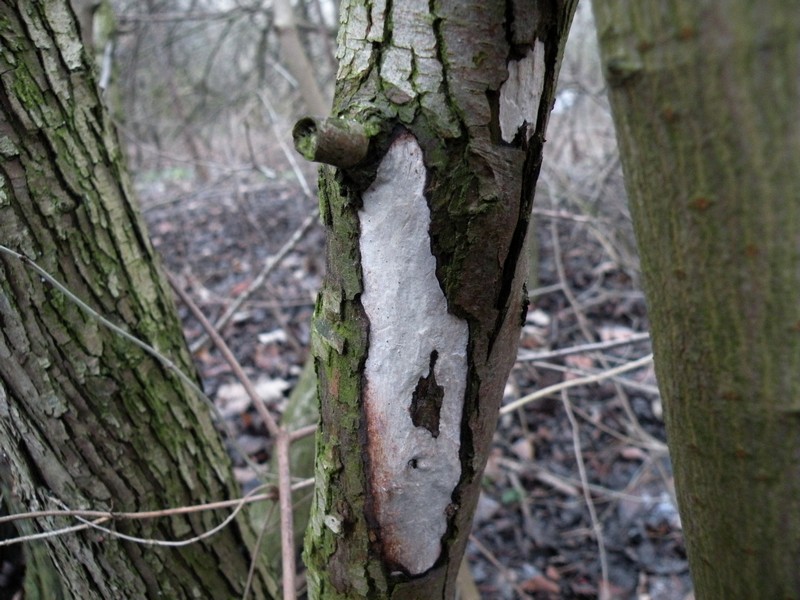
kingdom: Fungi
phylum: Basidiomycota
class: Agaricomycetes
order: Corticiales
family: Vuilleminiaceae
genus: Vuilleminia
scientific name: Vuilleminia cystidiata
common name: tjørne-barksprænger
